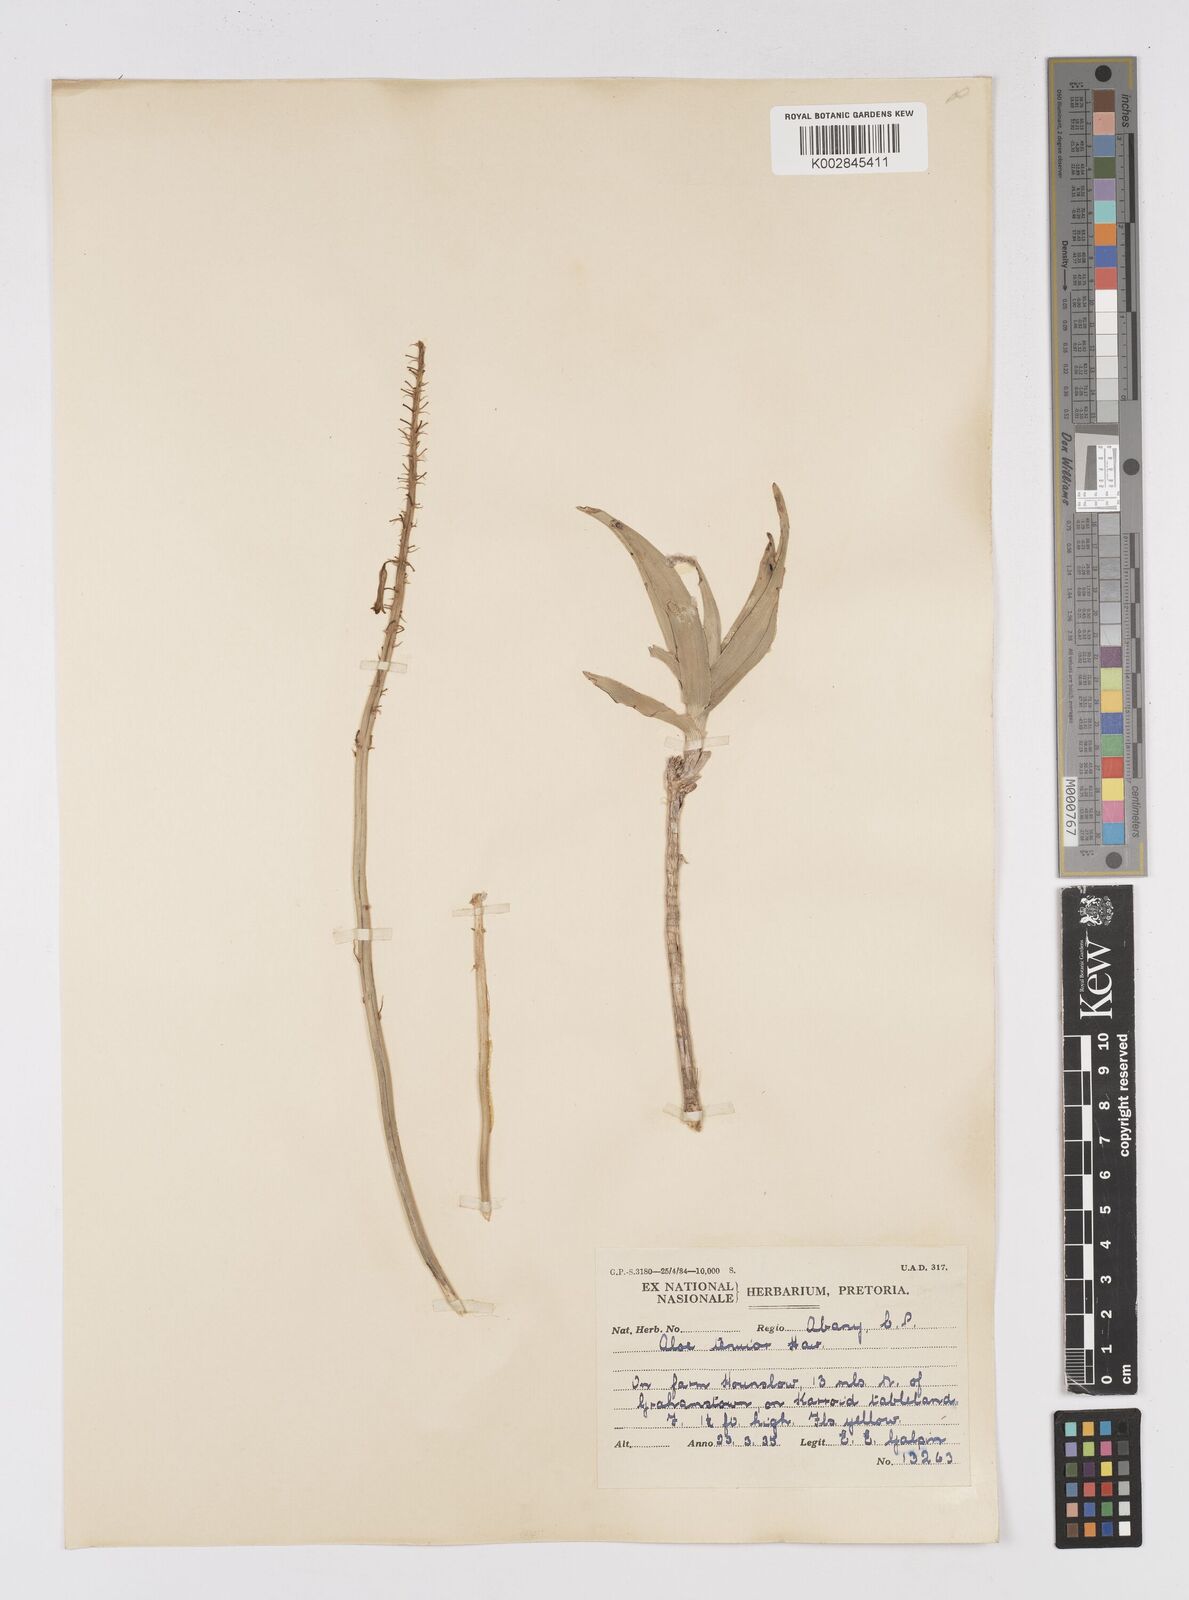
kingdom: Plantae
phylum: Tracheophyta
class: Liliopsida
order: Asparagales
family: Asphodelaceae
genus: Aloiampelos
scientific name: Aloiampelos tenuior
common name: Fence aloe
